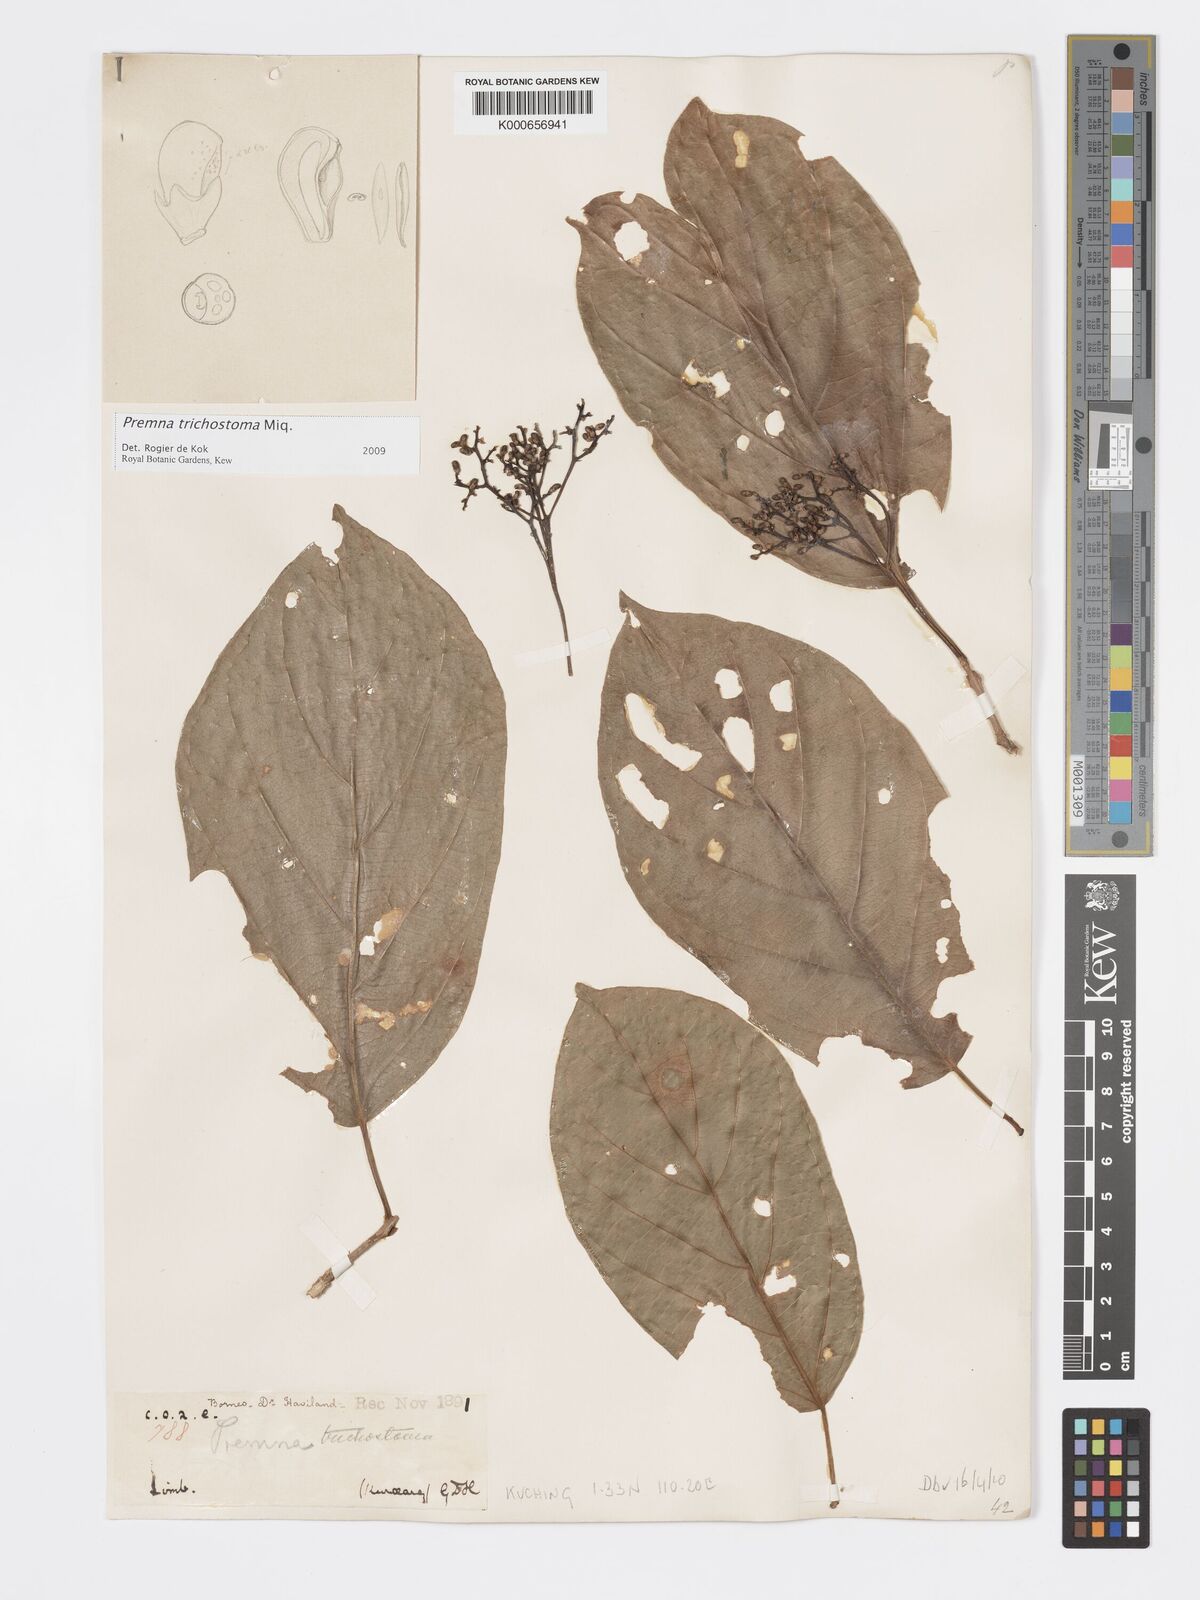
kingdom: Plantae
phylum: Tracheophyta
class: Magnoliopsida
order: Lamiales
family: Lamiaceae
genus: Premna
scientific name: Premna trichostoma
